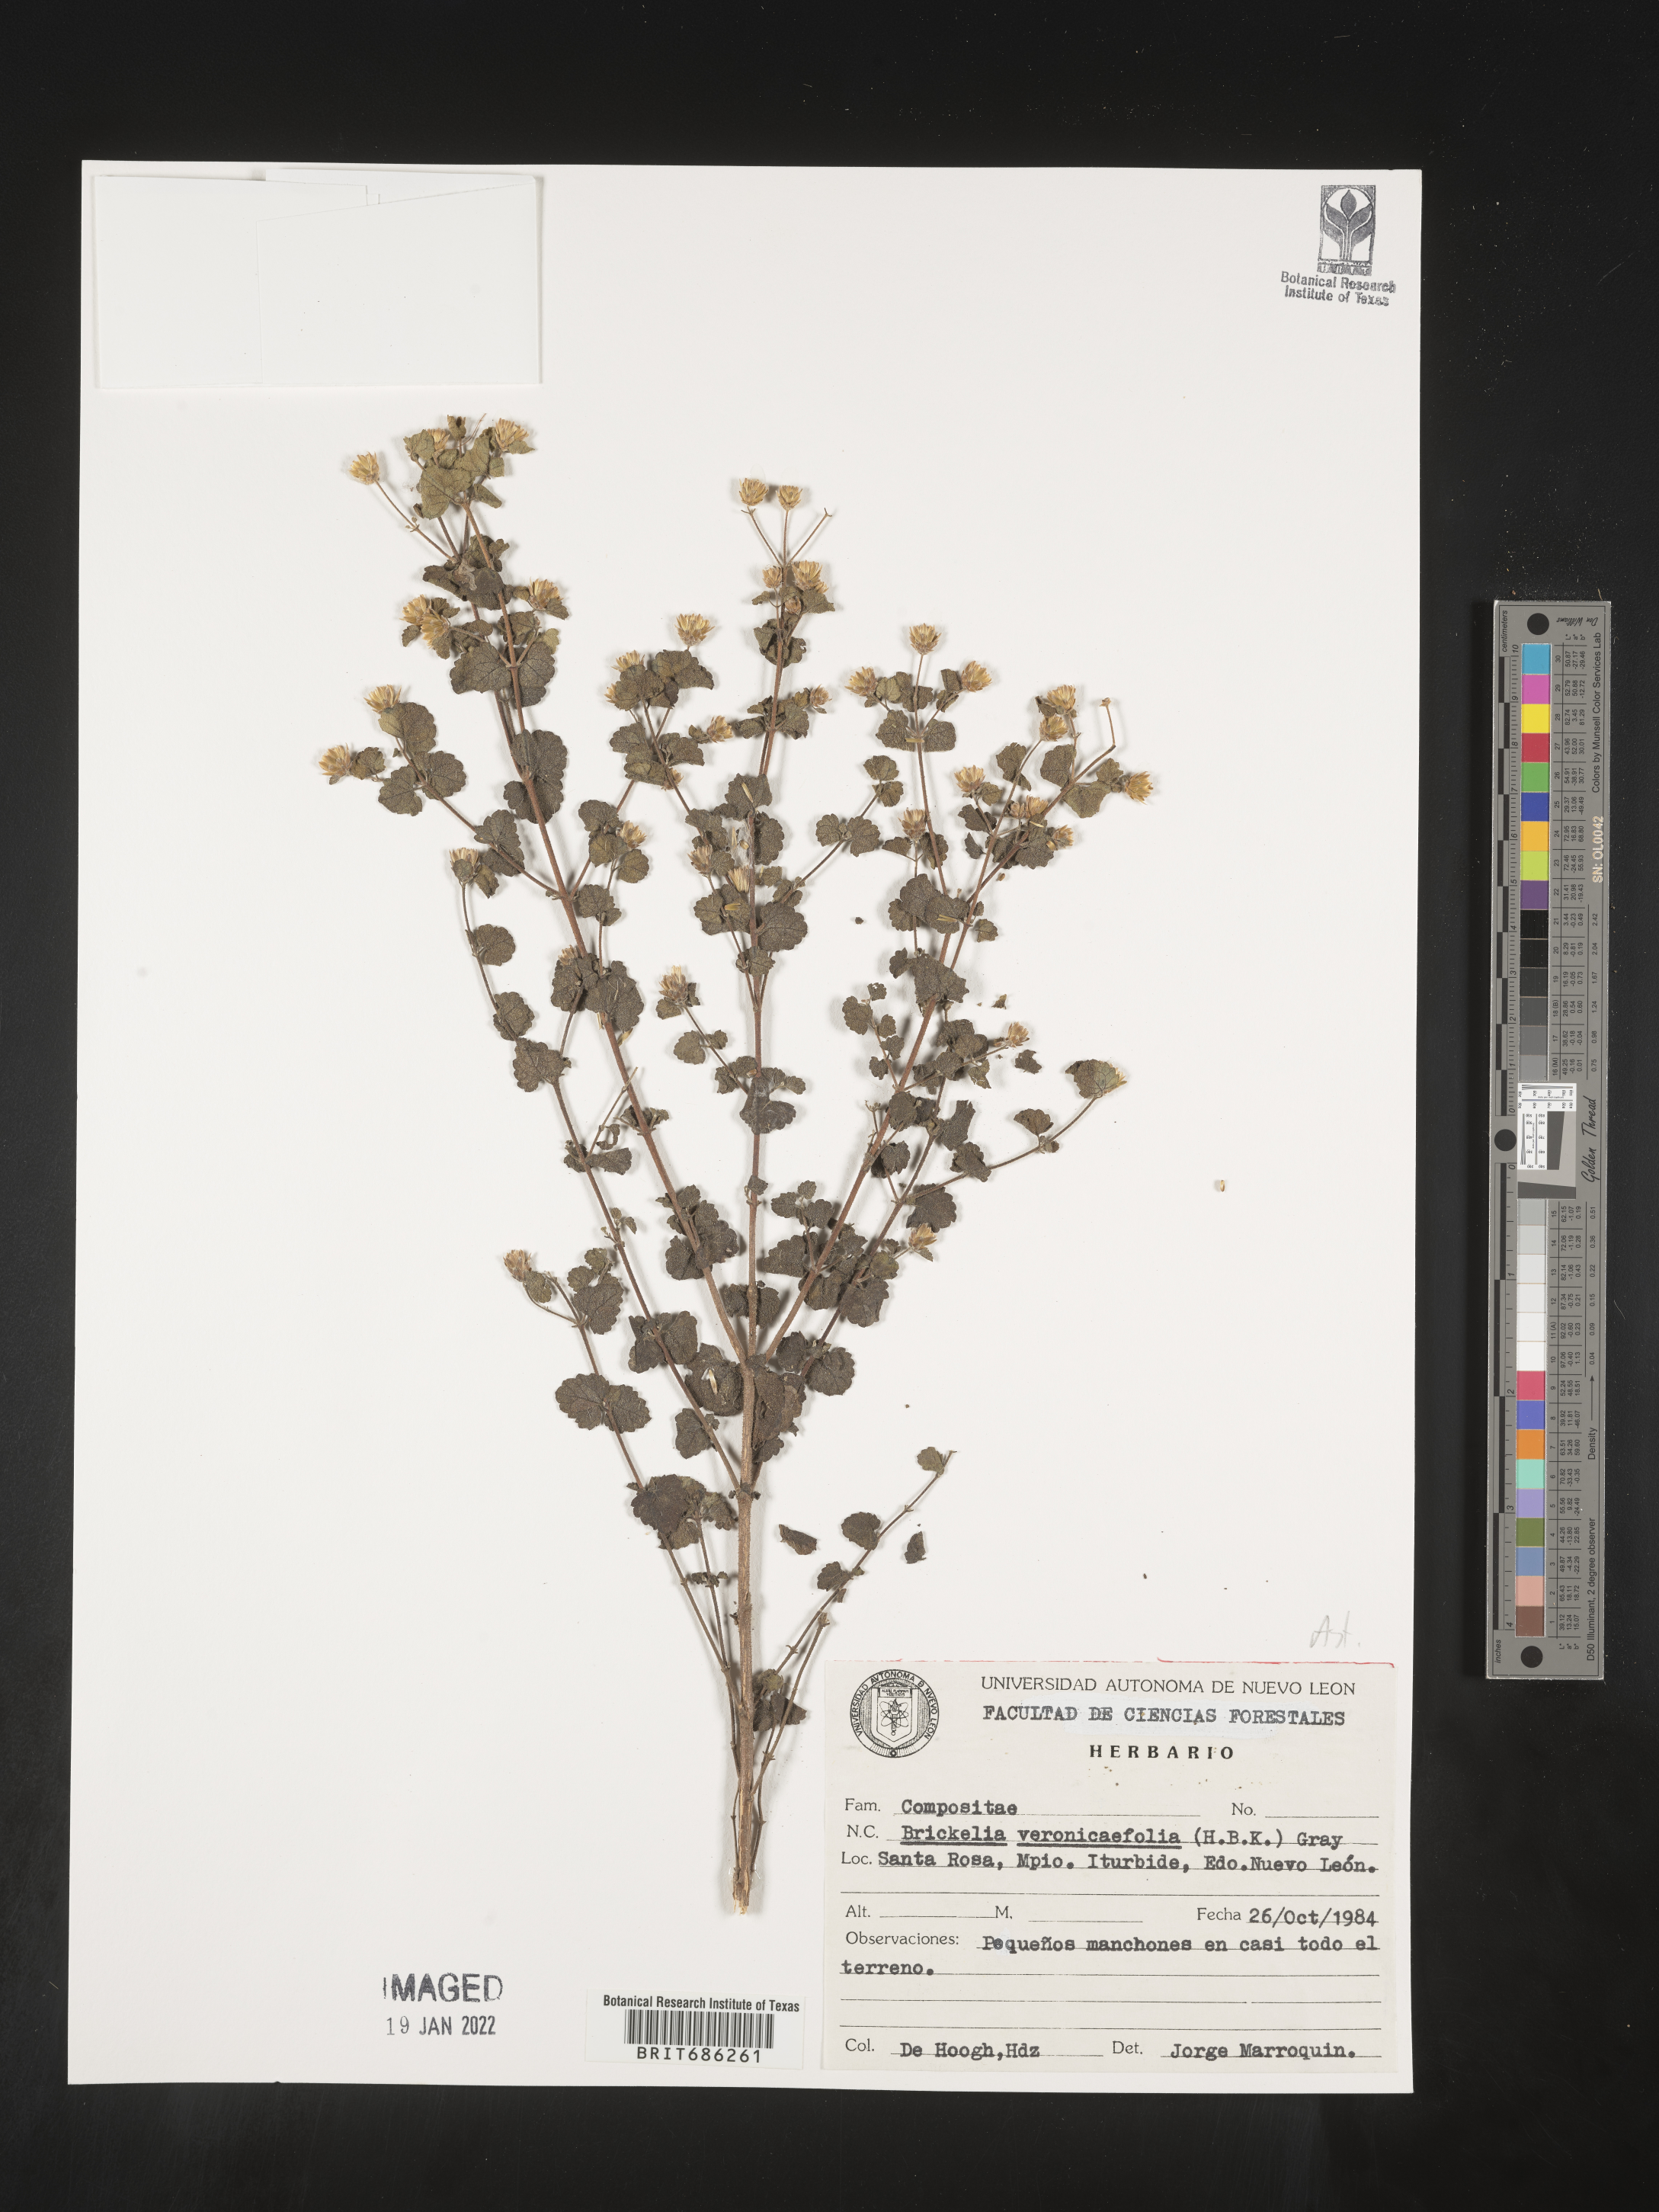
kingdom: Plantae
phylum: Tracheophyta
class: Magnoliopsida
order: Asterales
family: Asteraceae
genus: Brickellia
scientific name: Brickellia veronicifolia
